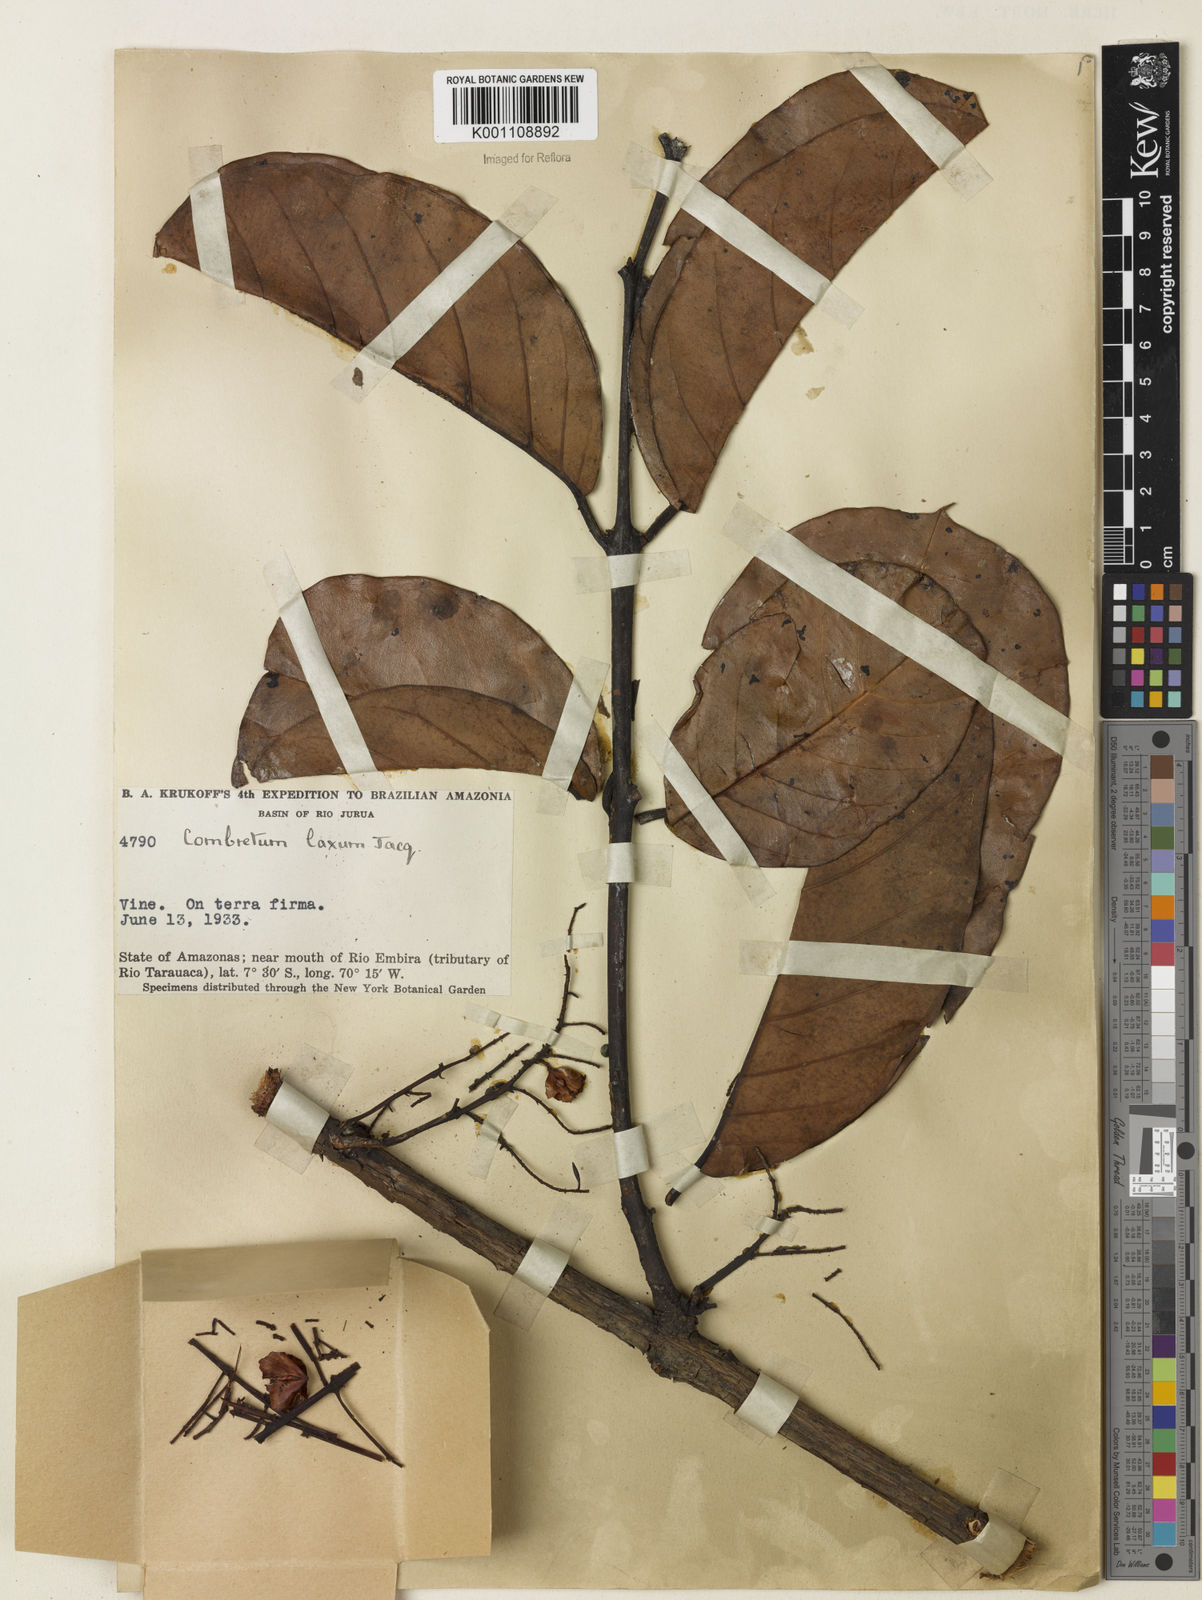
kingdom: Plantae
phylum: Tracheophyta
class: Magnoliopsida
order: Myrtales
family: Combretaceae
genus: Combretum
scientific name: Combretum laxum
